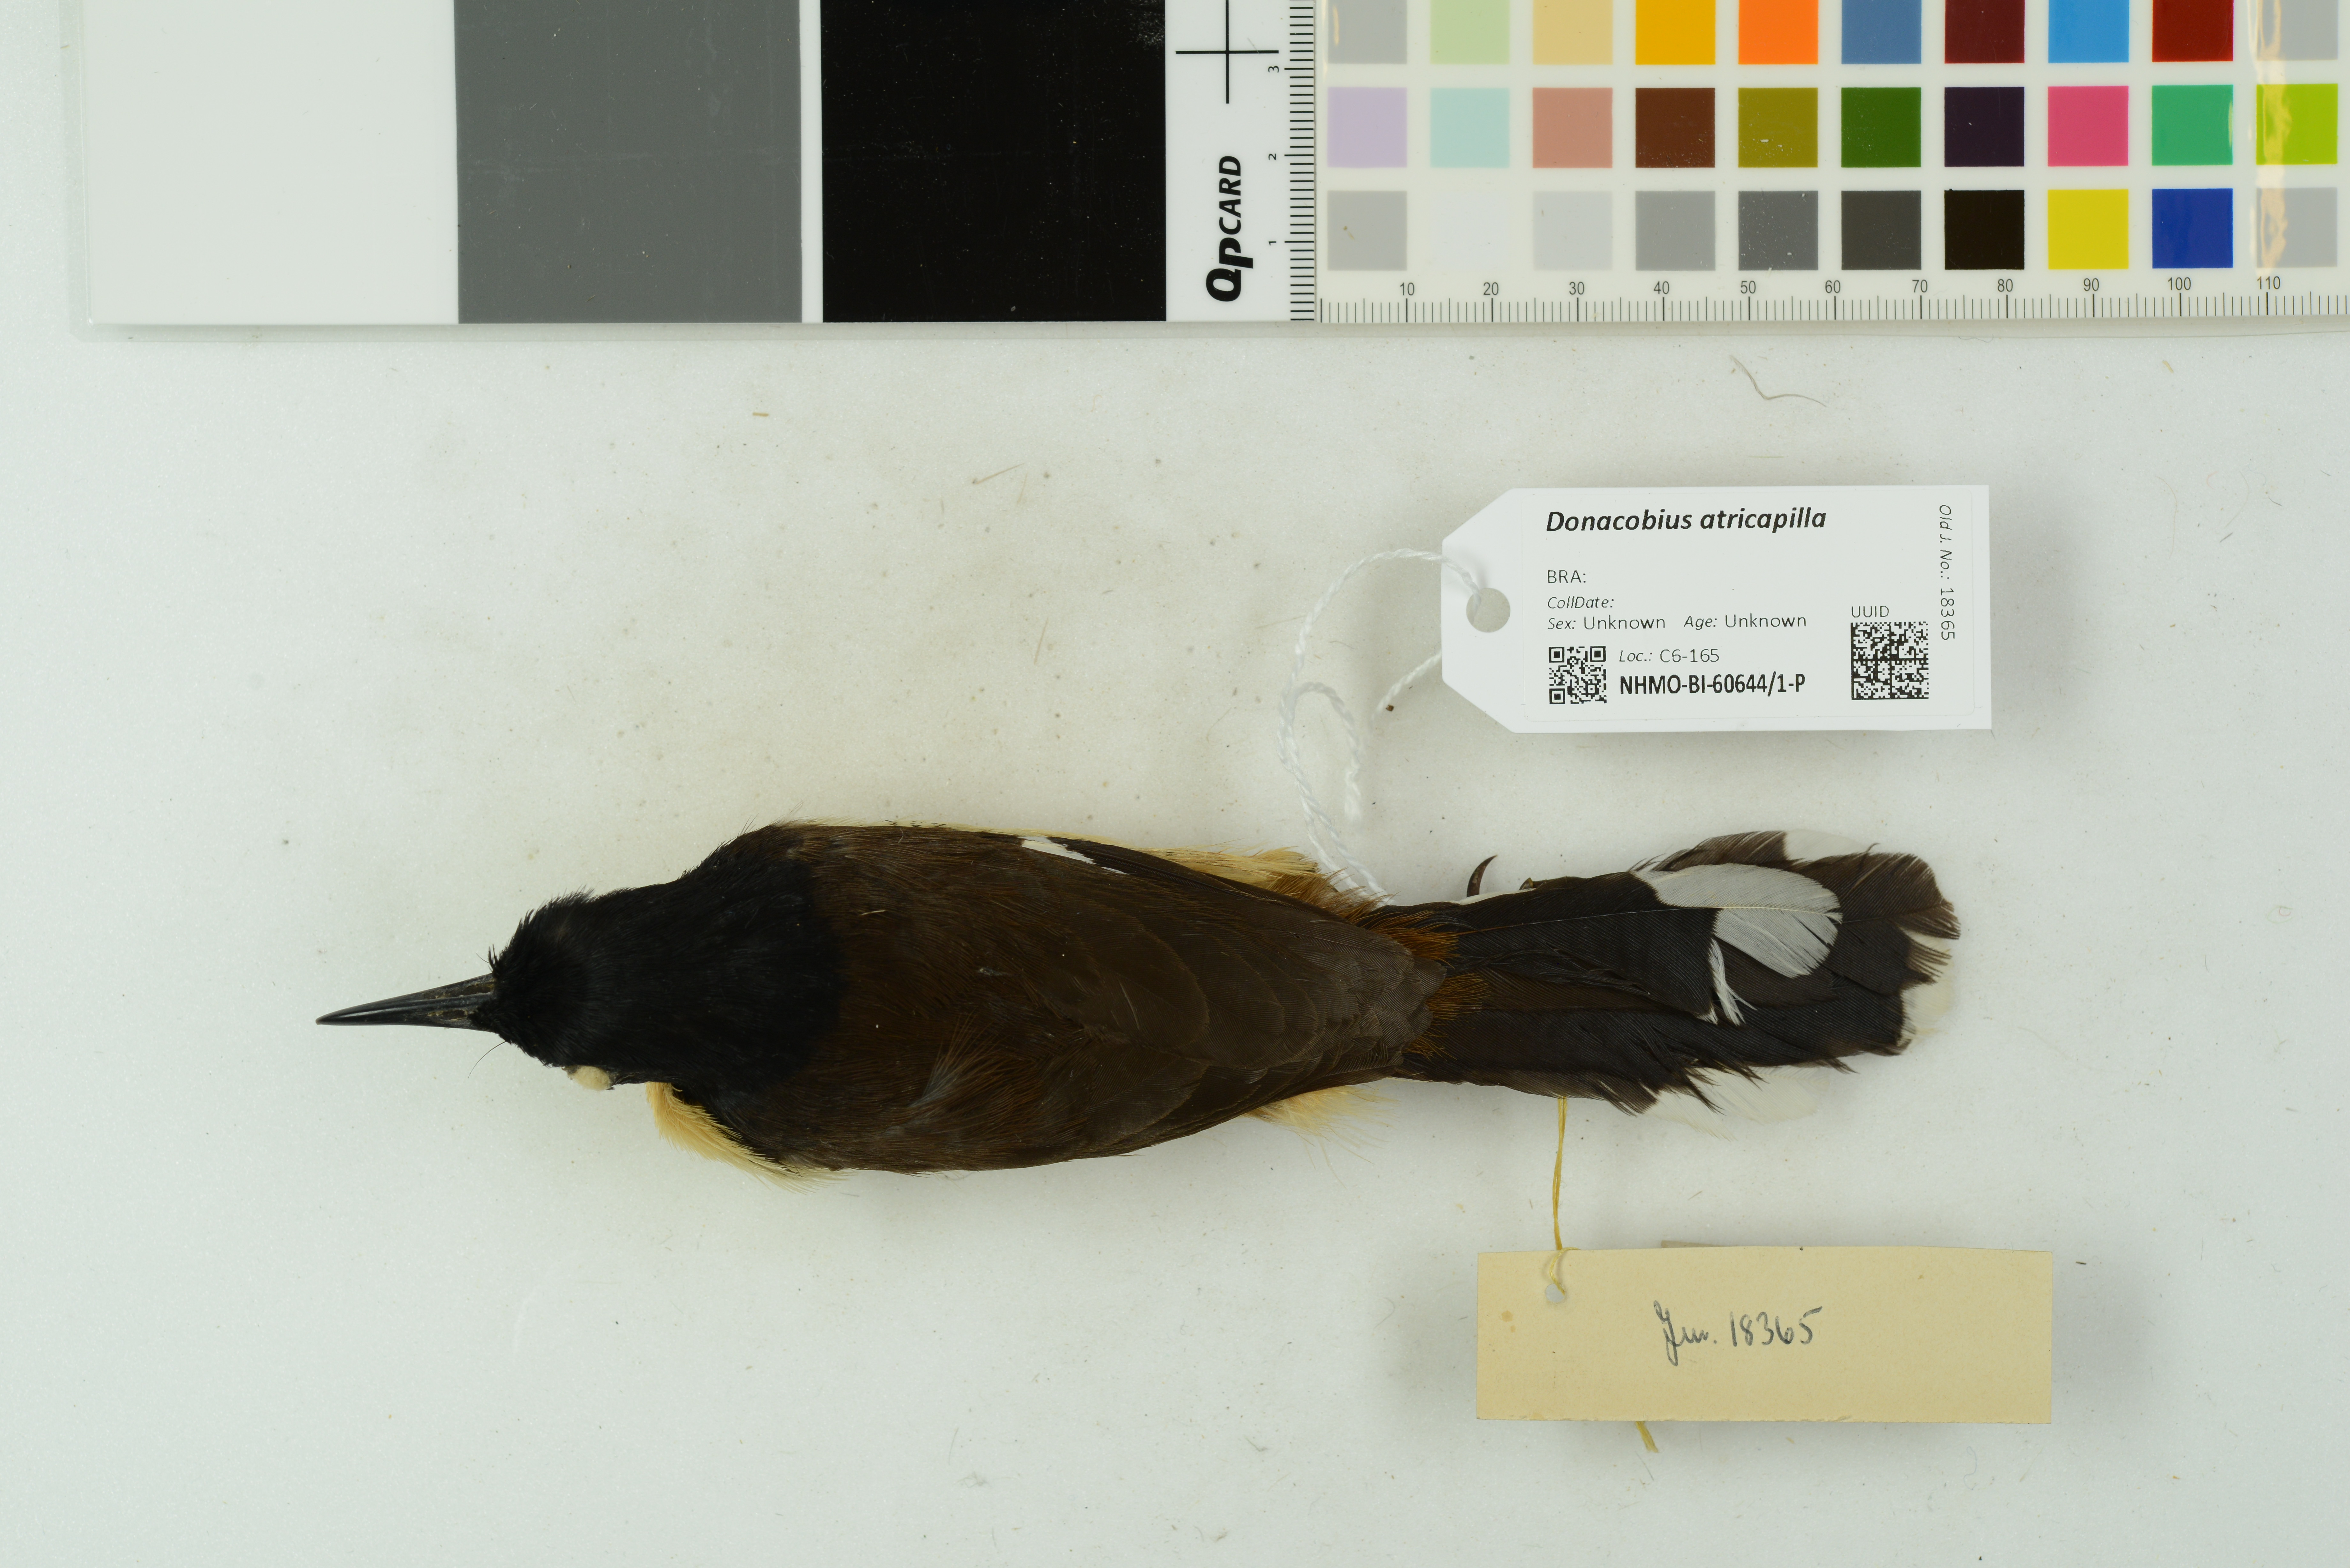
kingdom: Animalia
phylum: Chordata
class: Aves
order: Passeriformes
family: Donacobiidae
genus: Donacobius
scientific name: Donacobius atricapilla
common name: Black-capped donacobius
